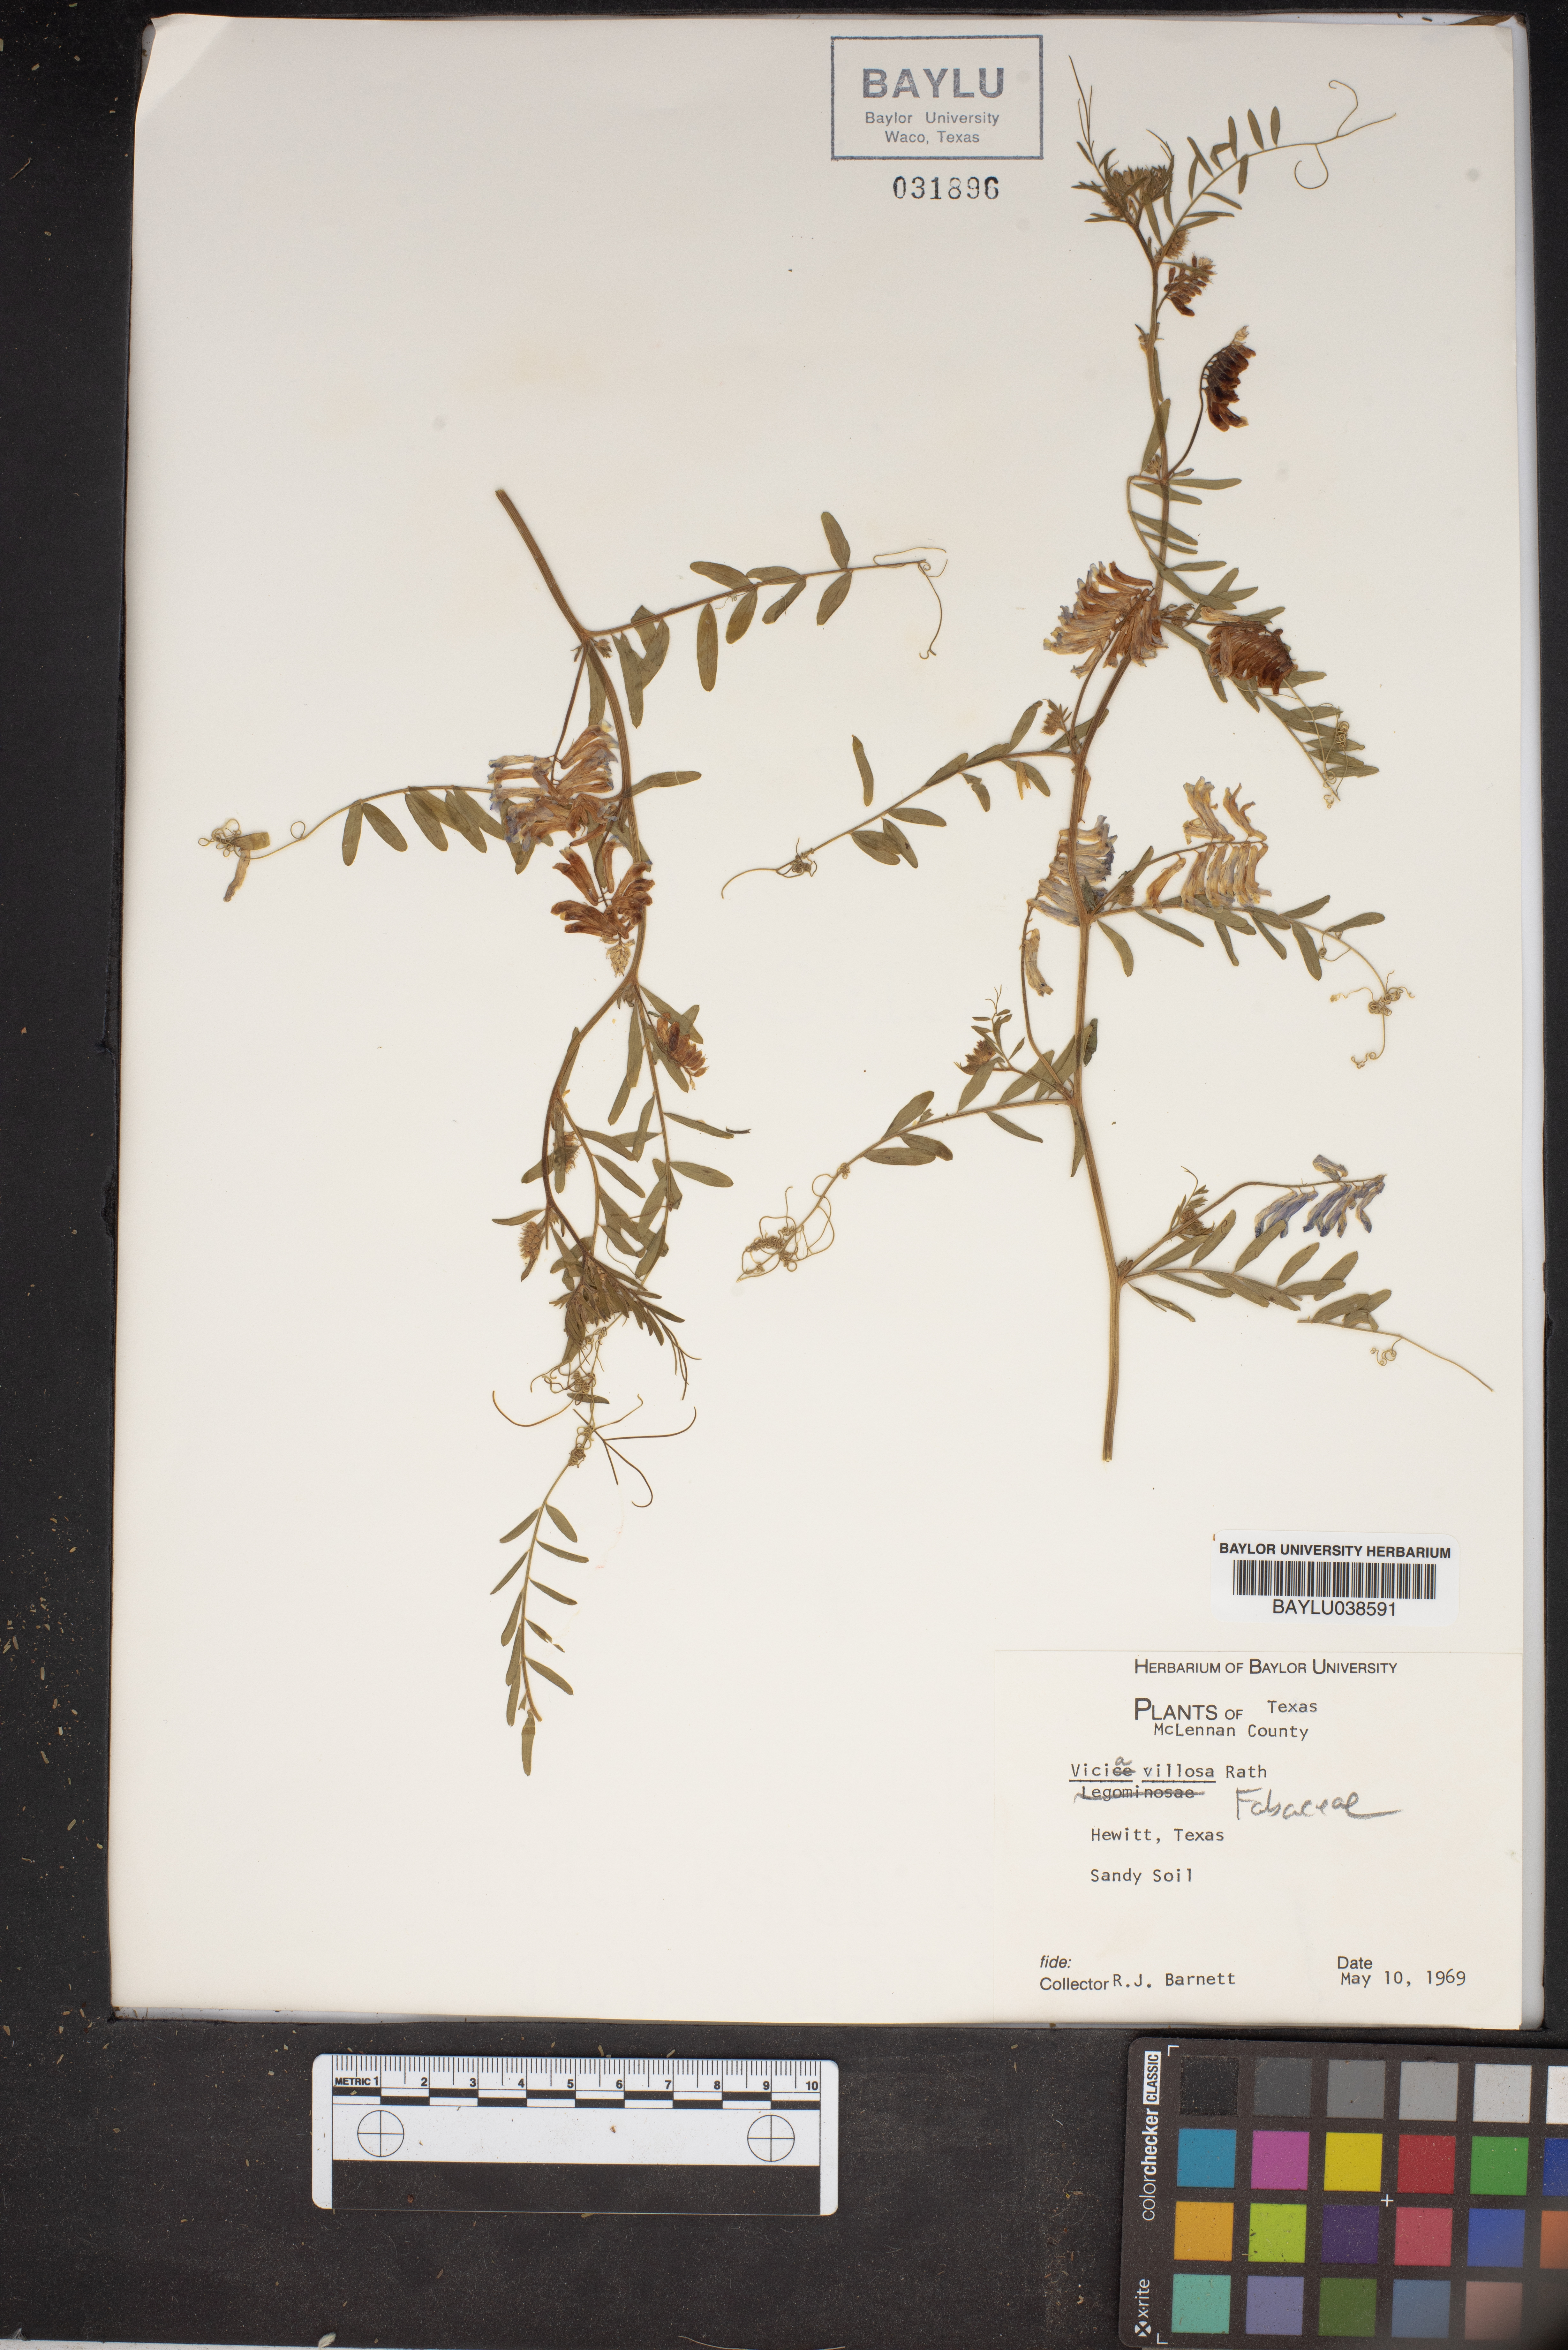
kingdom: Plantae
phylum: Tracheophyta
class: Magnoliopsida
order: Fabales
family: Fabaceae
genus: Vicia
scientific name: Vicia villosa
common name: Fodder vetch
